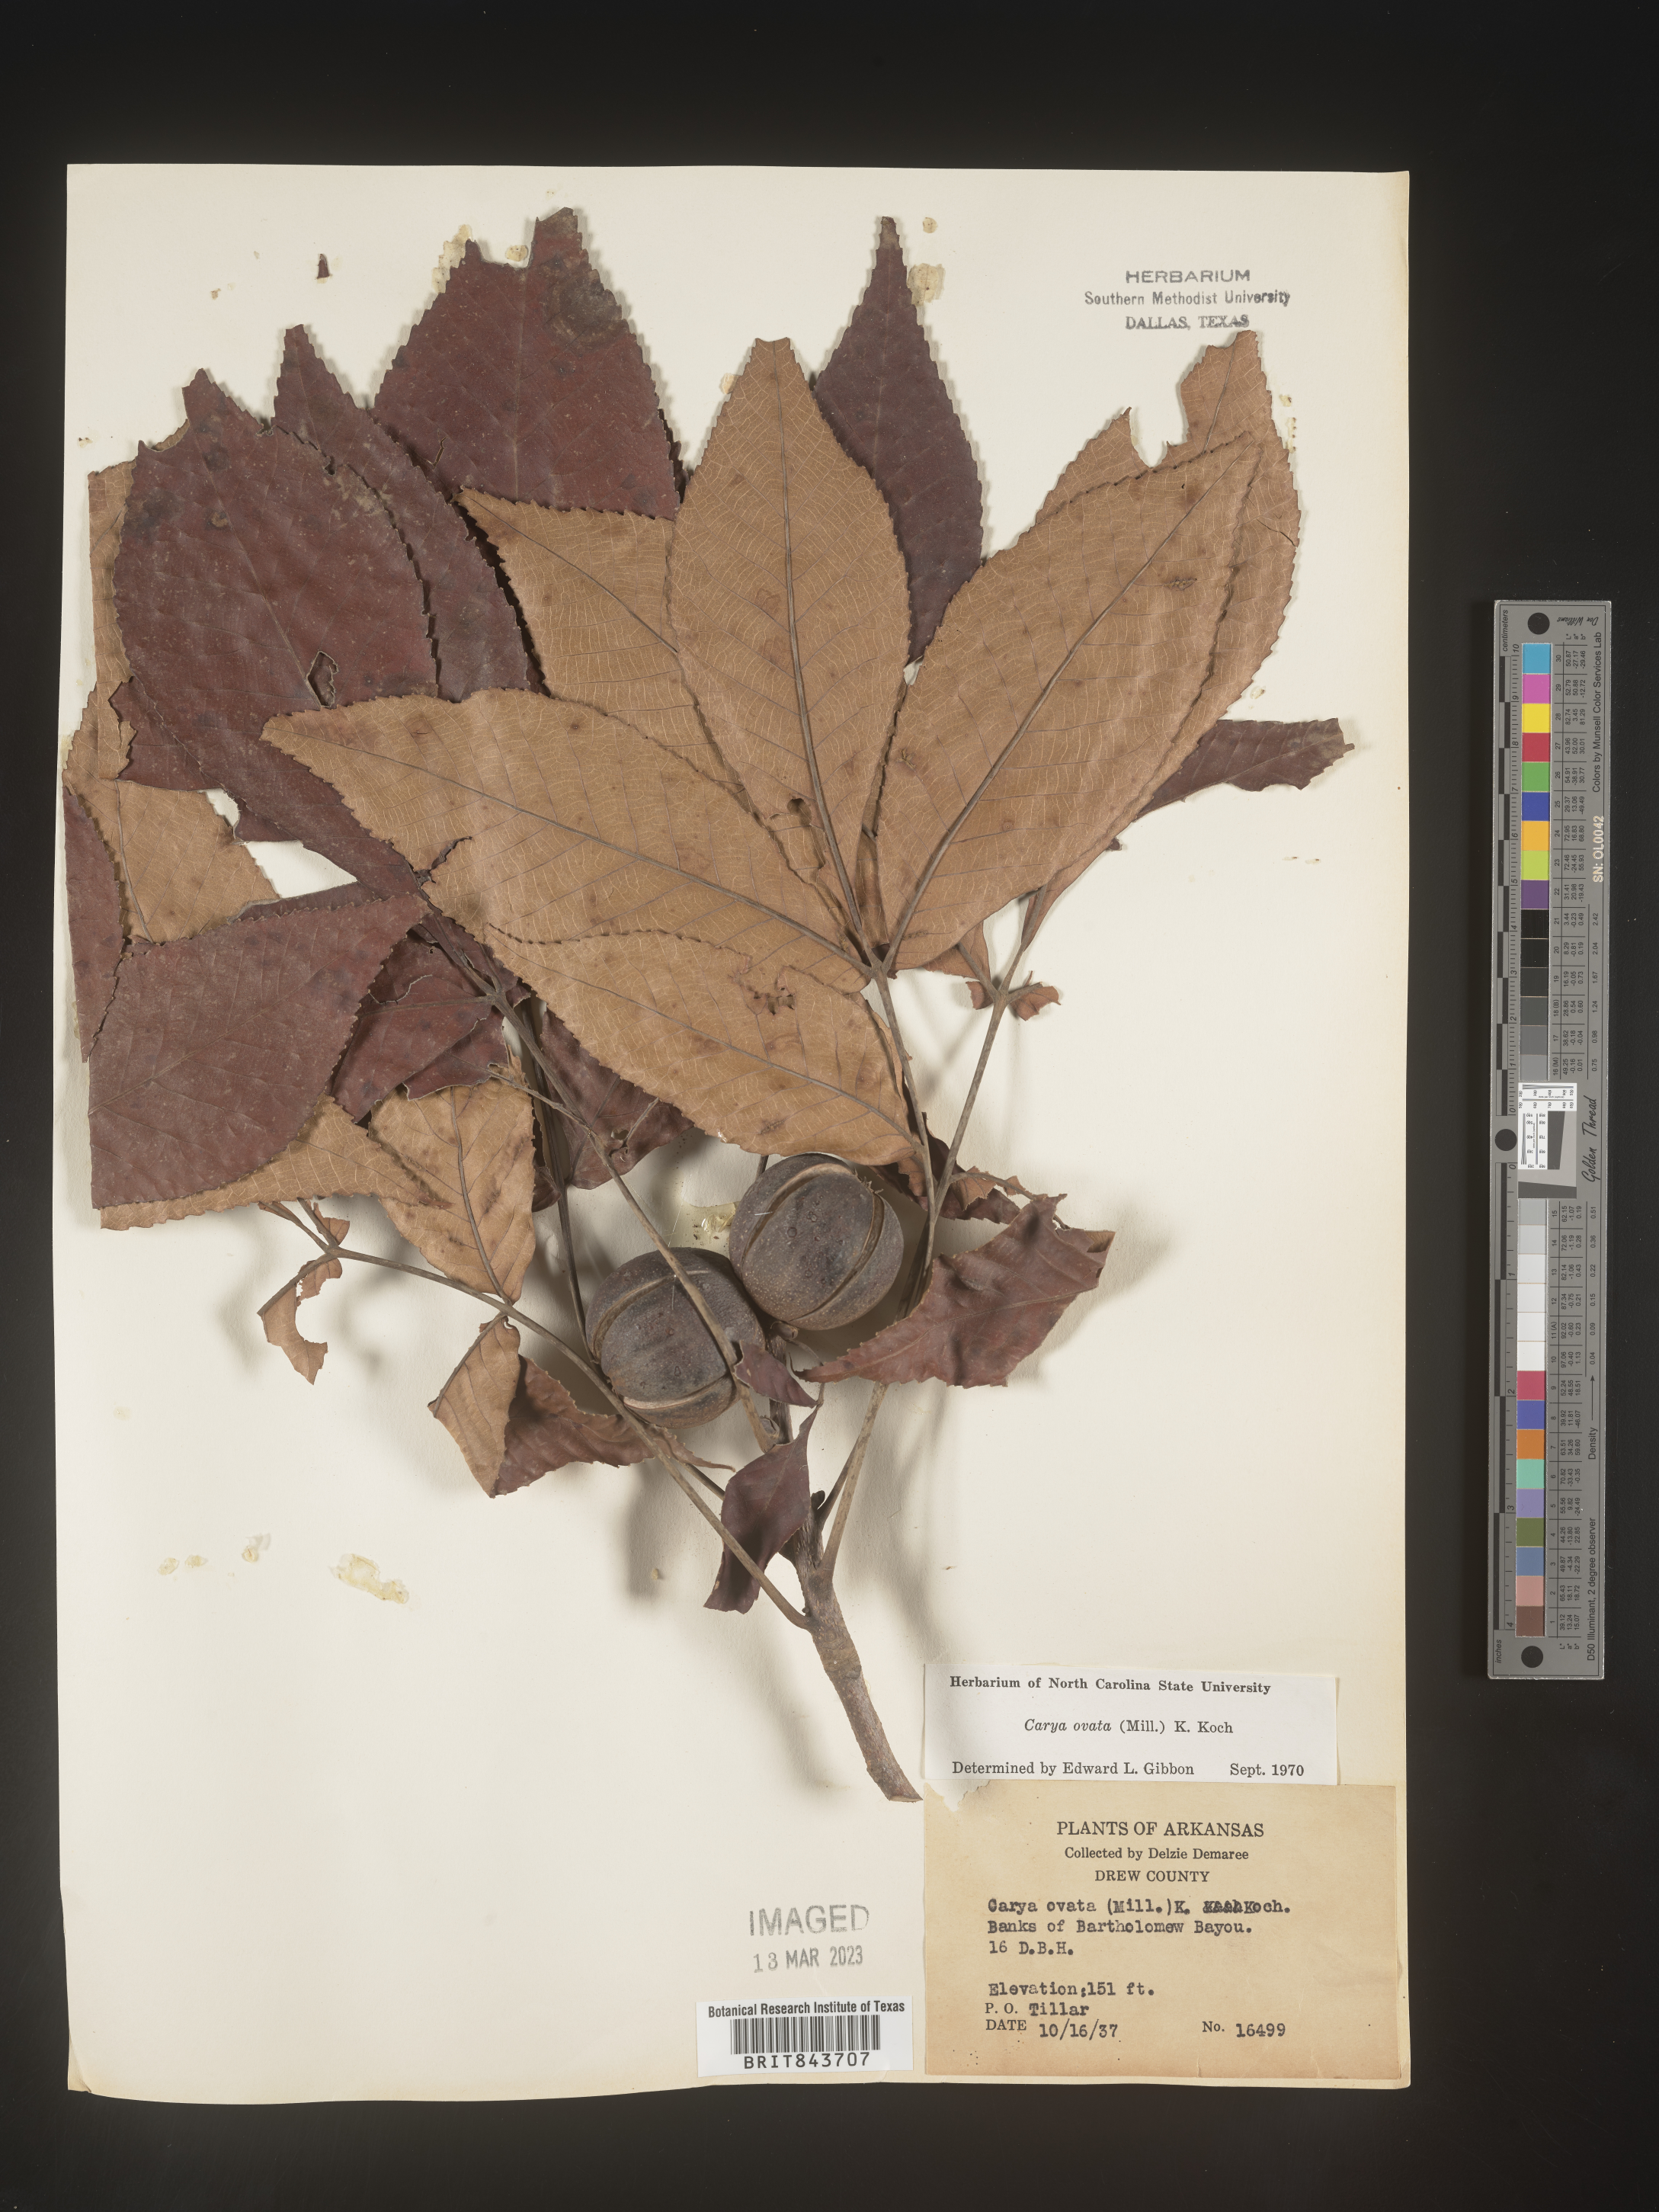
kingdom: Plantae
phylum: Tracheophyta
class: Magnoliopsida
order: Fagales
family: Juglandaceae
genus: Carya
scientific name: Carya ovata
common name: Shagbark hickory
